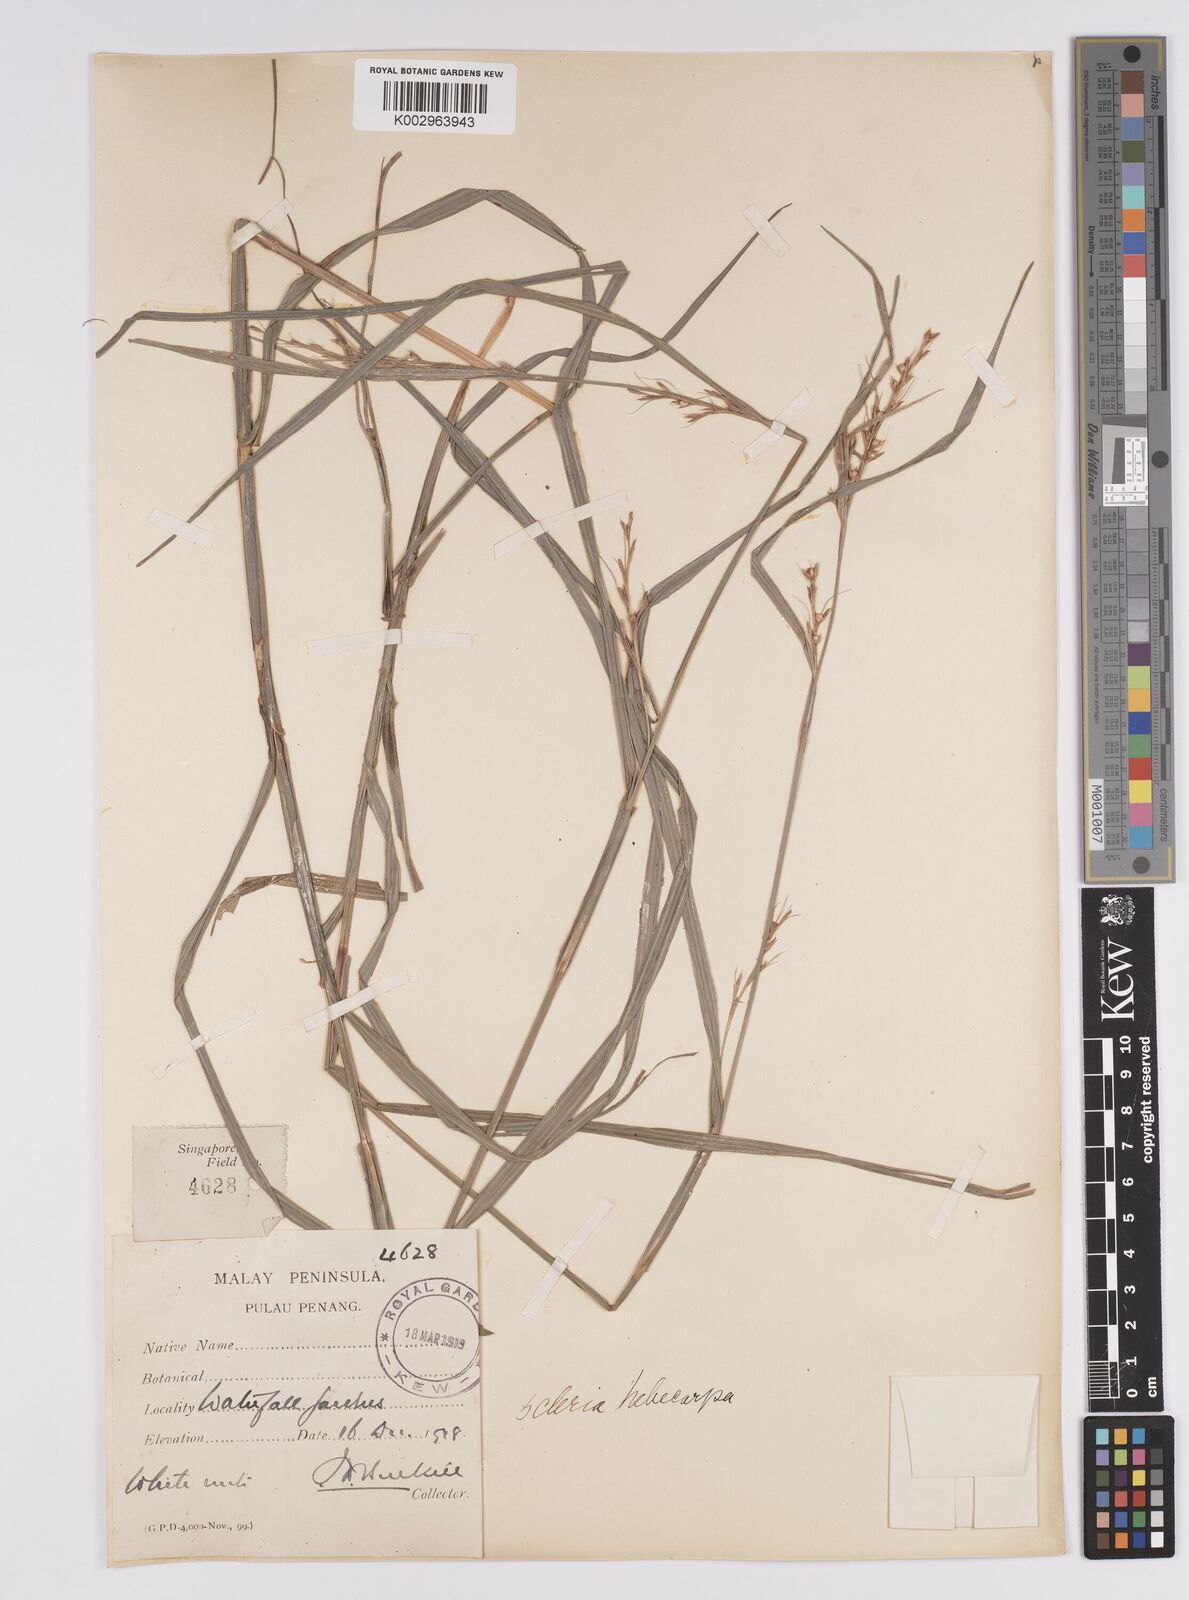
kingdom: Plantae
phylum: Tracheophyta
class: Liliopsida
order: Poales
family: Cyperaceae
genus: Scleria
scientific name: Scleria levis
